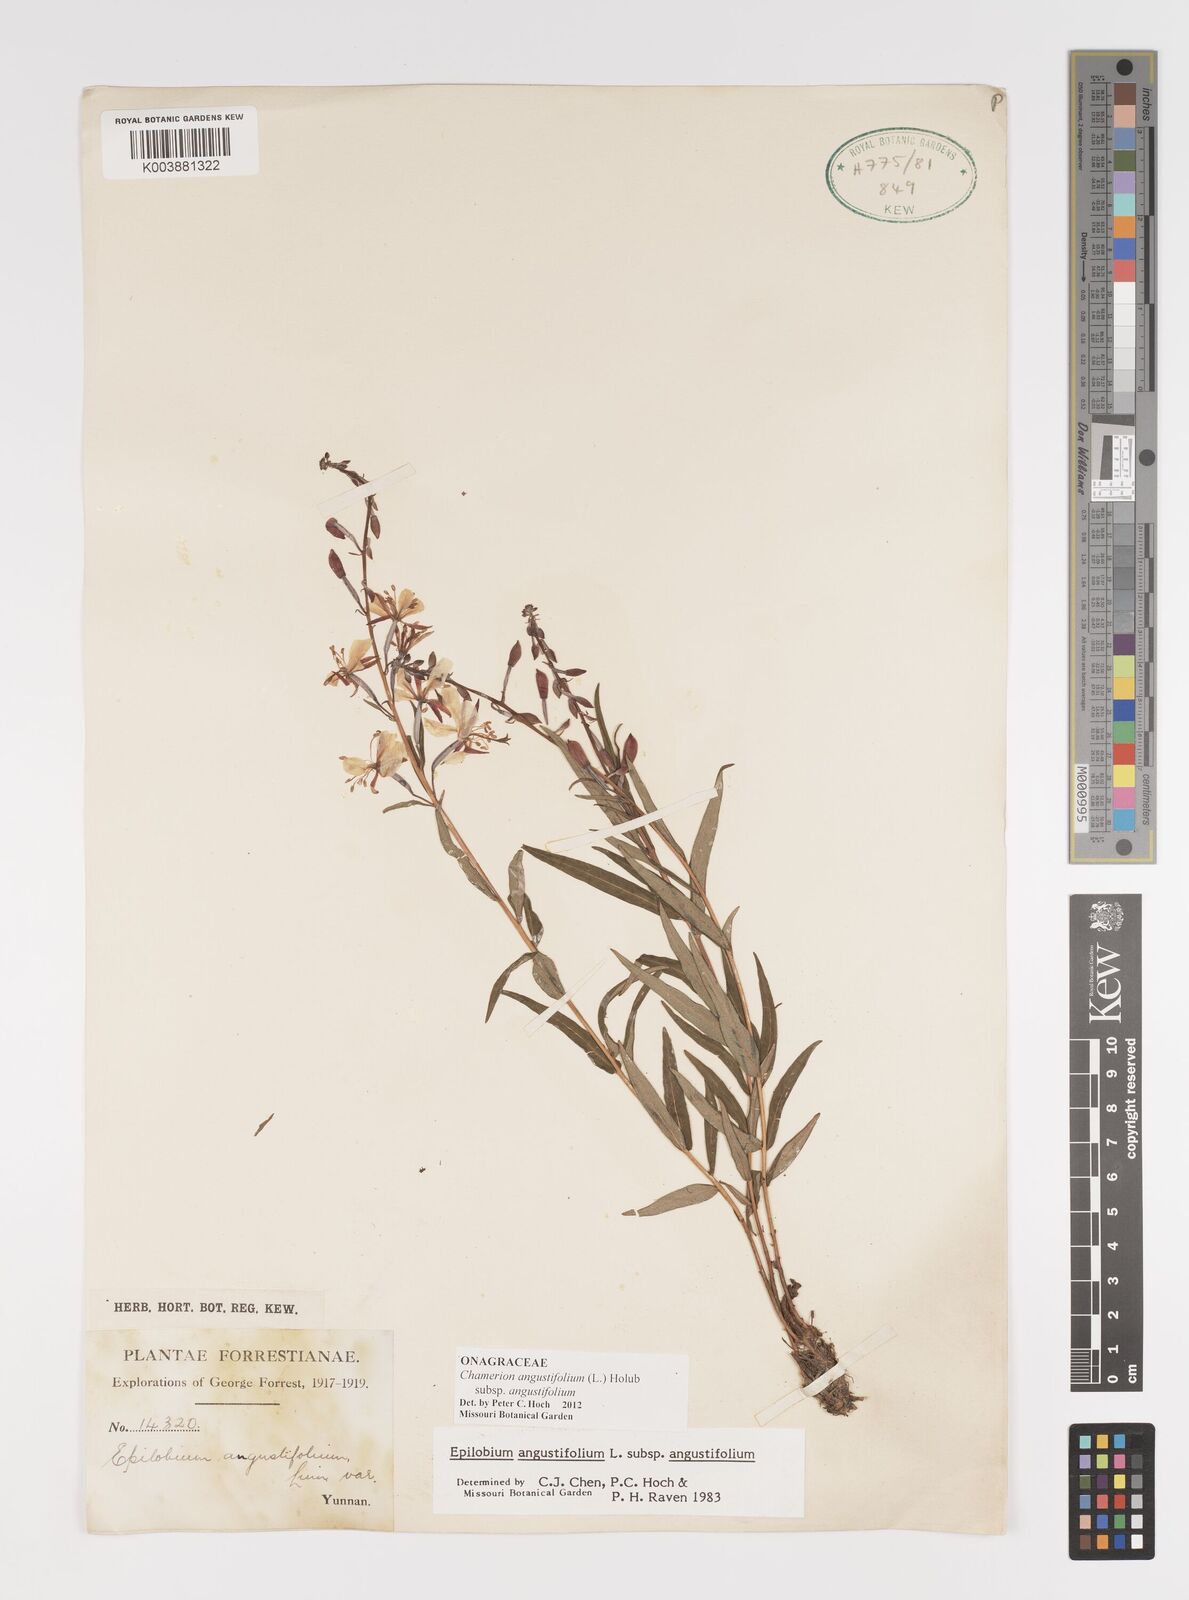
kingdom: Plantae
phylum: Tracheophyta
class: Magnoliopsida
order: Myrtales
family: Onagraceae
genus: Chamaenerion
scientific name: Chamaenerion angustifolium
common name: Fireweed
